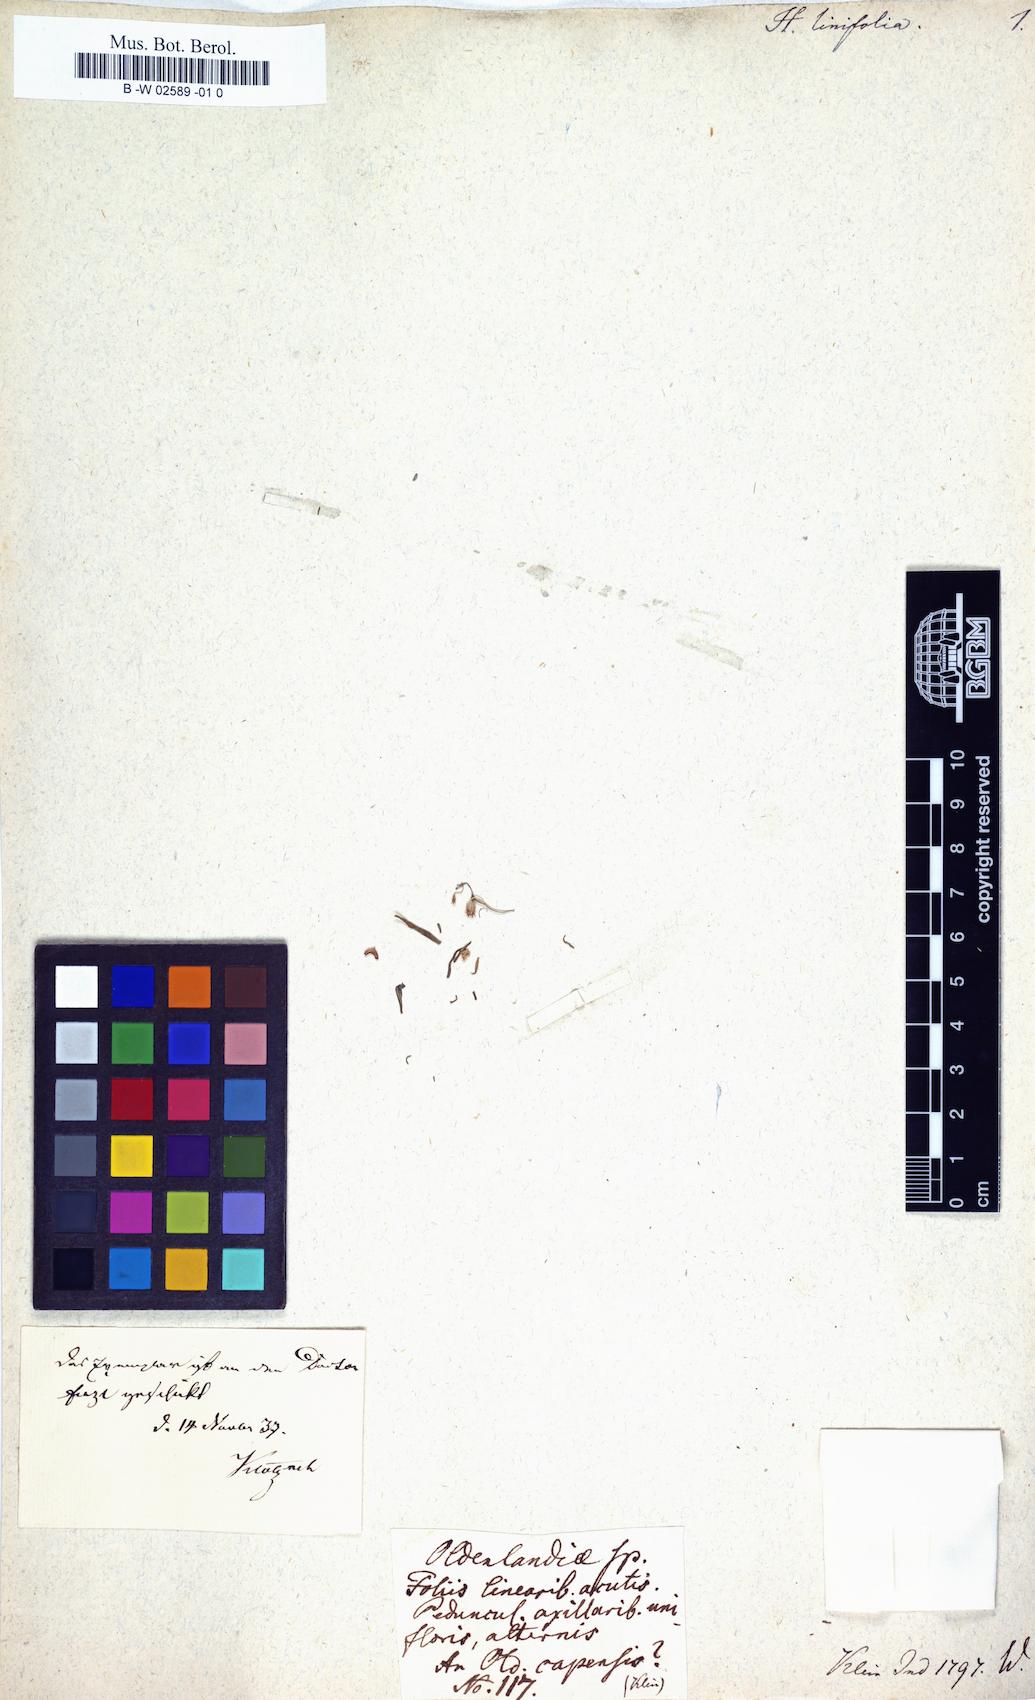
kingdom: Plantae
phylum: Tracheophyta
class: Magnoliopsida
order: Gentianales
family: Rubiaceae
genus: Oldenlandia
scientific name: Oldenlandia stricta
